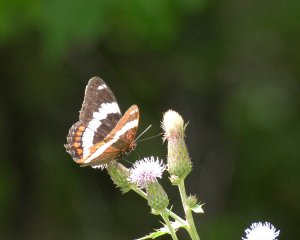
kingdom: Animalia
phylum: Arthropoda
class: Insecta
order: Lepidoptera
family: Nymphalidae
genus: Limenitis
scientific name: Limenitis arthemis
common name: Red-spotted Admiral
